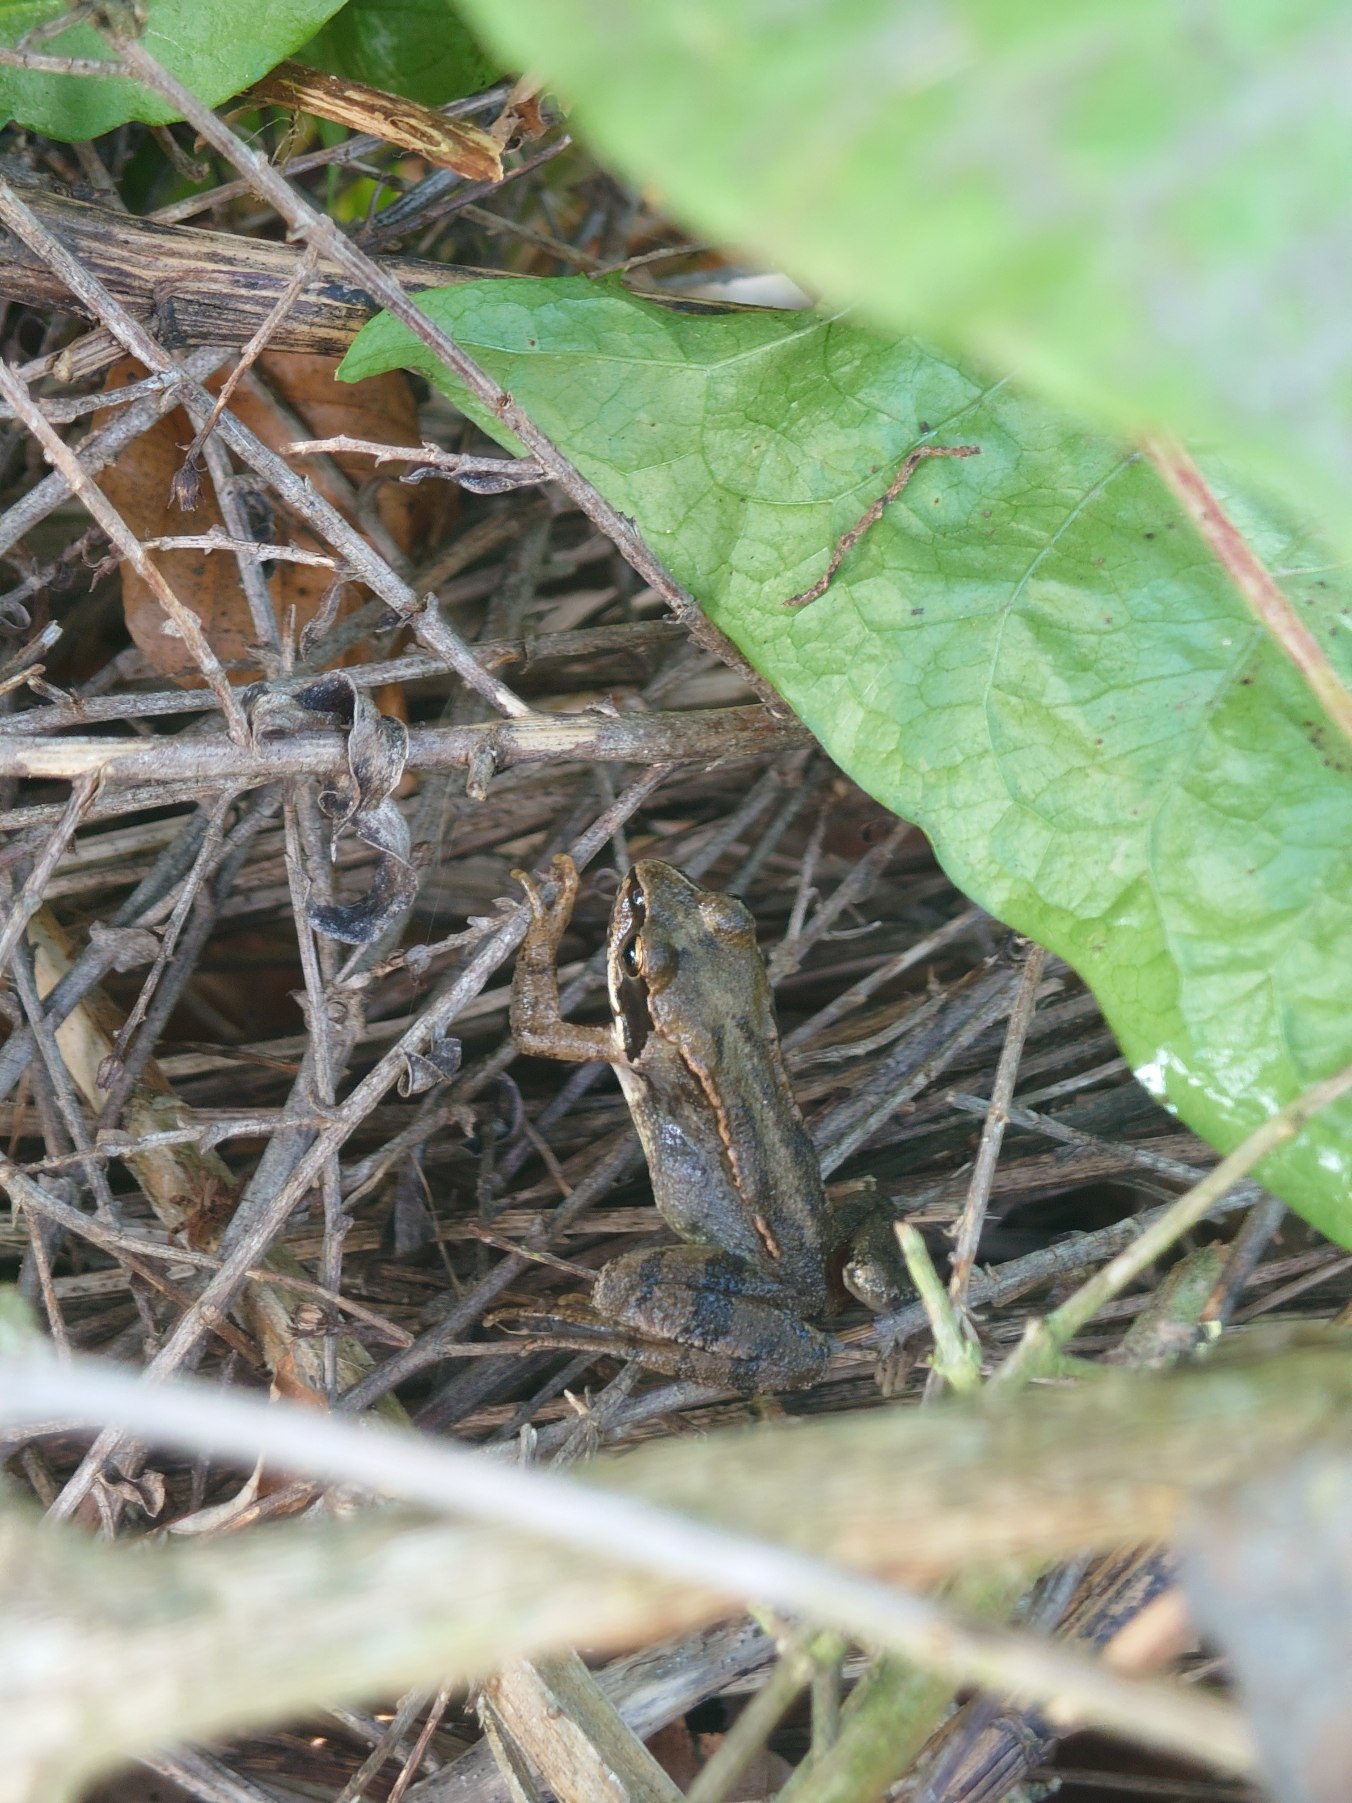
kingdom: Animalia
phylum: Chordata
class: Amphibia
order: Anura
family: Ranidae
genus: Rana
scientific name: Rana temporaria
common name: Butsnudet frø
